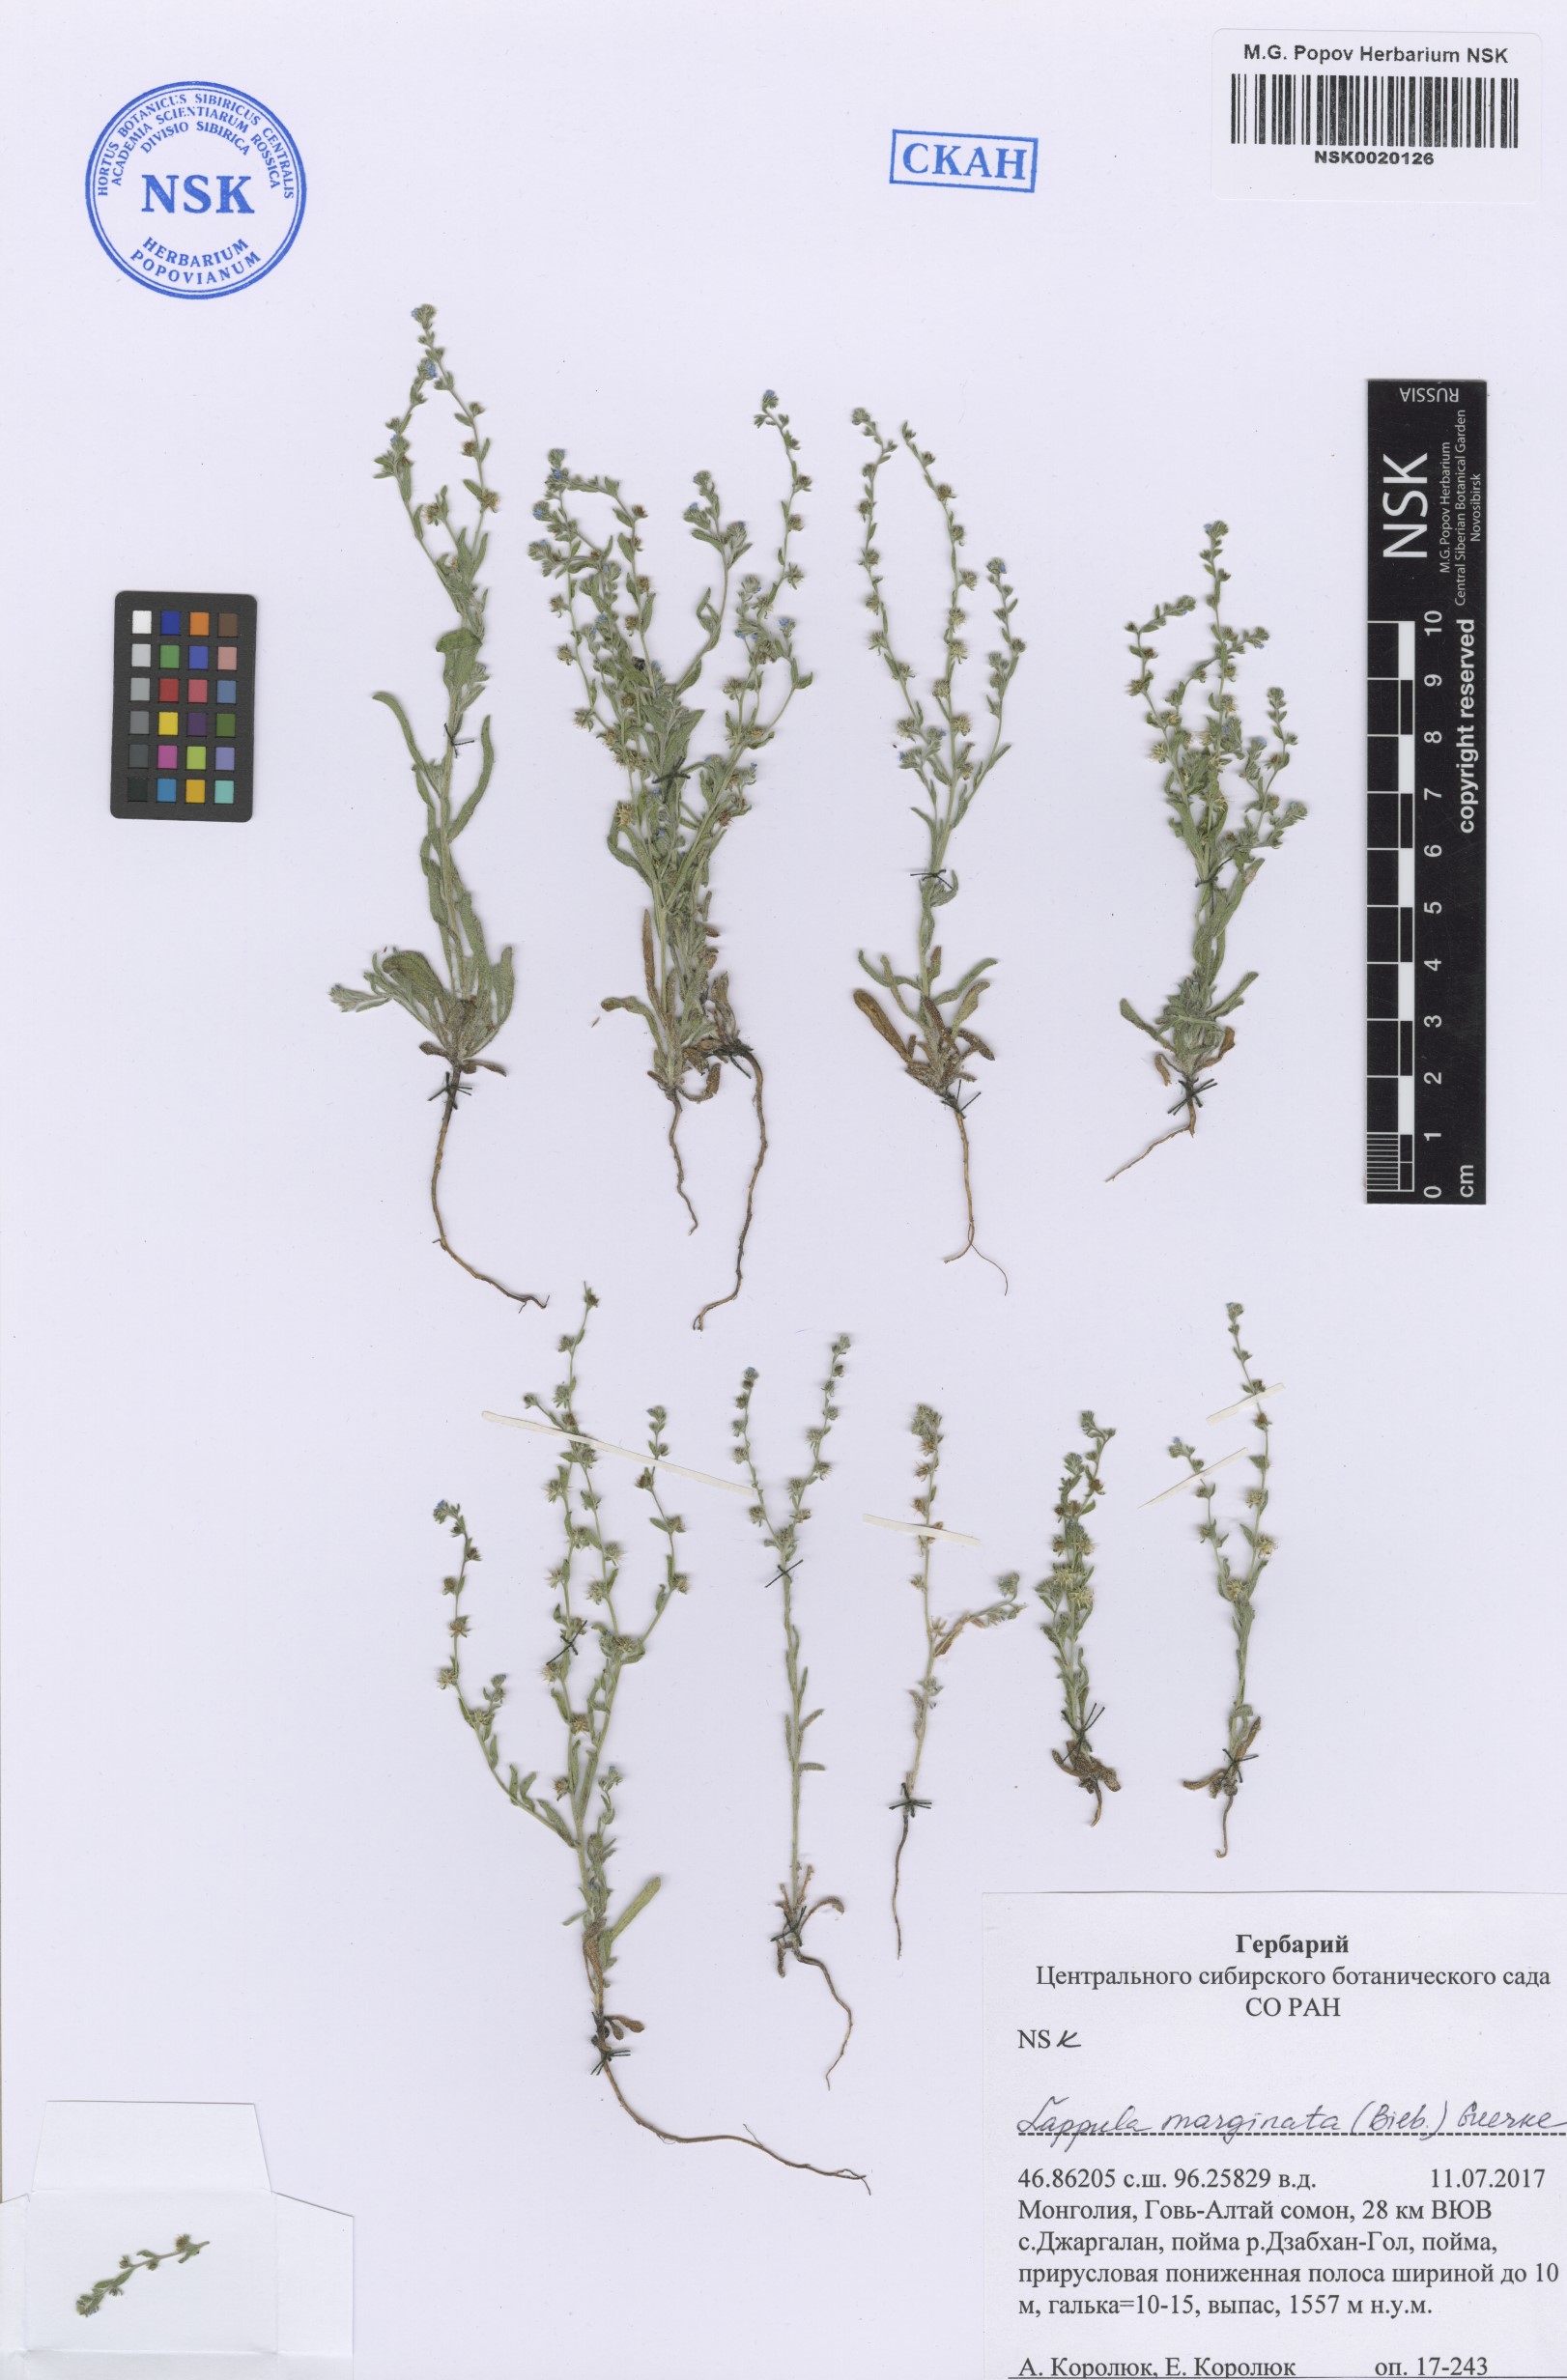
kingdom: Plantae
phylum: Tracheophyta
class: Magnoliopsida
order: Boraginales
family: Boraginaceae
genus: Lappula
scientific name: Lappula marginata
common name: Margined stickseed
